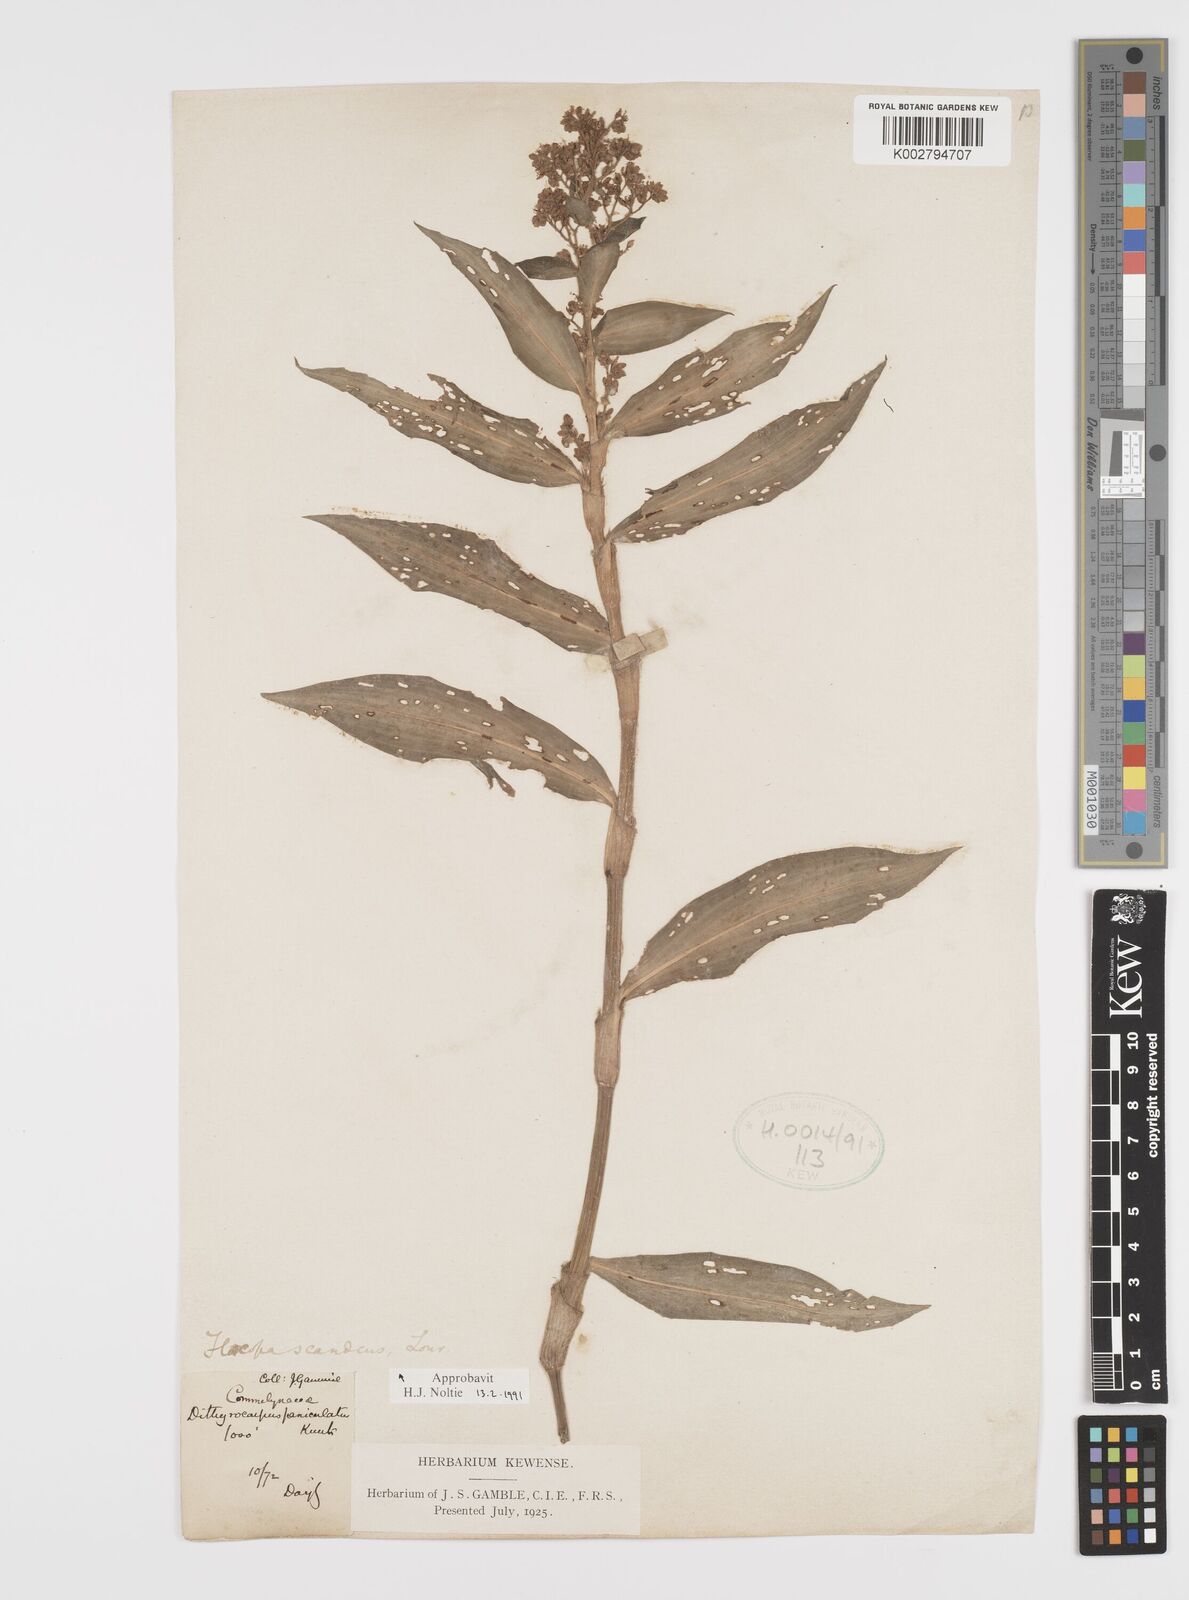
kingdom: Plantae
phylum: Tracheophyta
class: Liliopsida
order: Commelinales
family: Commelinaceae
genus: Floscopa
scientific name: Floscopa scandens
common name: Climbing flower cup
